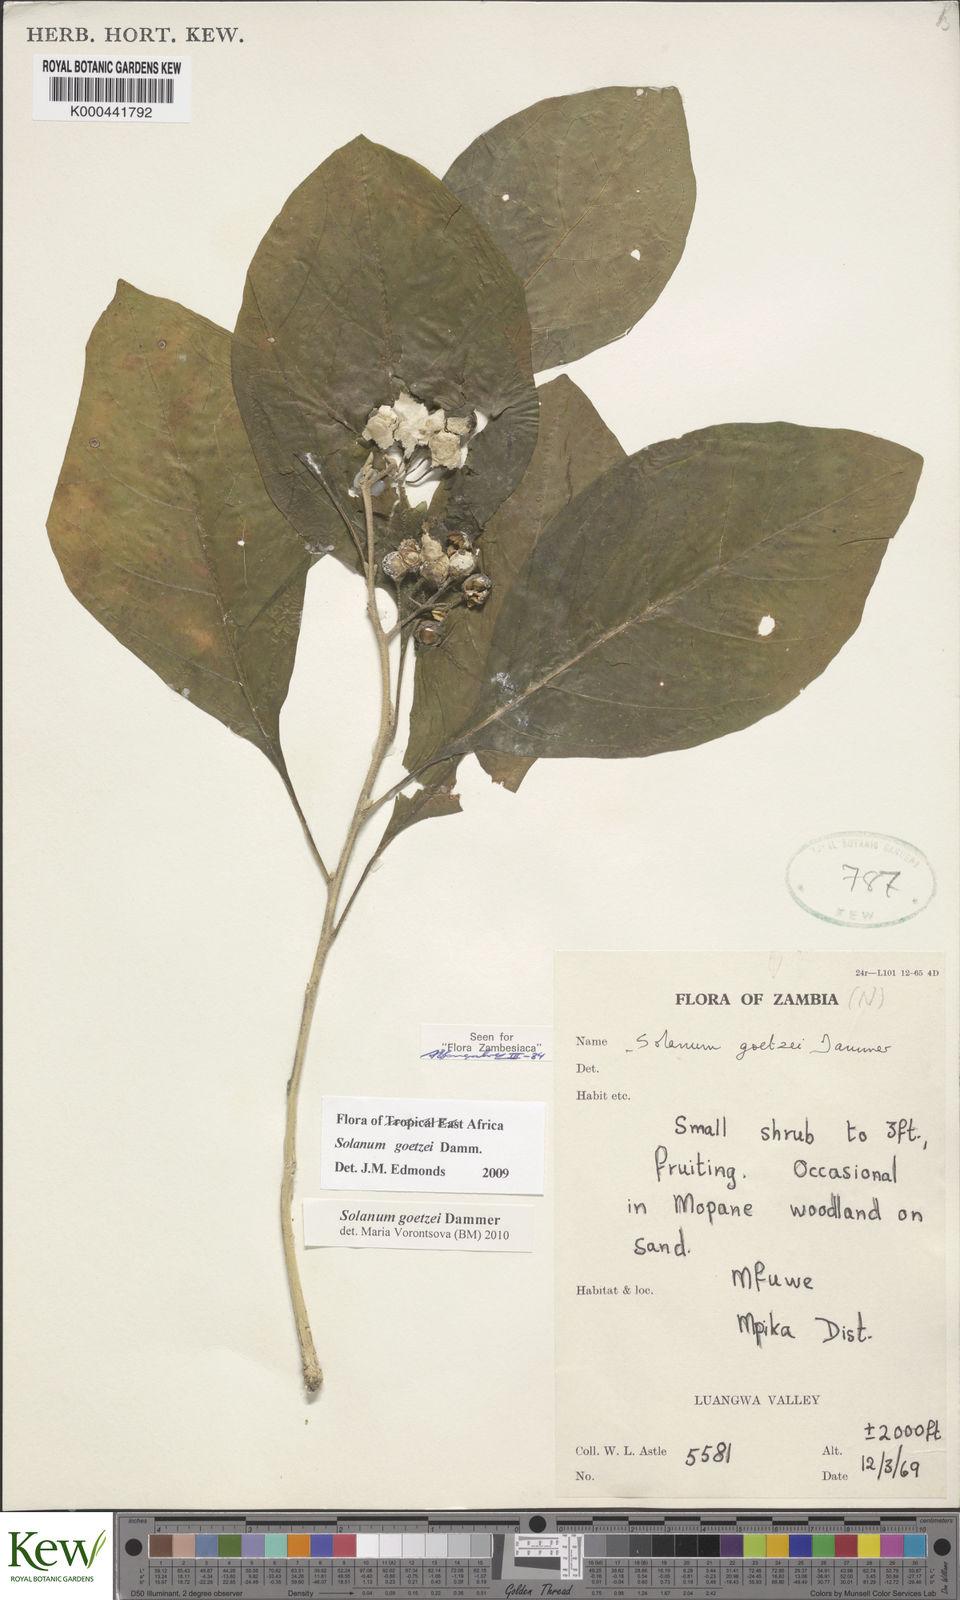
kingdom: Plantae
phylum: Tracheophyta
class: Magnoliopsida
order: Solanales
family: Solanaceae
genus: Solanum
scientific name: Solanum goetzei
